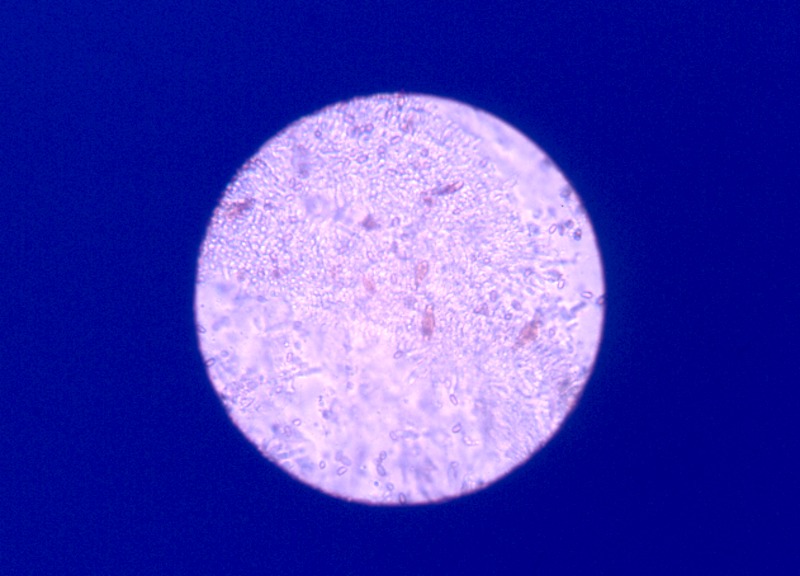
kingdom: Fungi
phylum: Basidiomycota
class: Agaricomycetes
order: Agaricales
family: Strophariaceae
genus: Pholiota
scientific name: Pholiota squarrosa
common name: Shaggy pholiota
